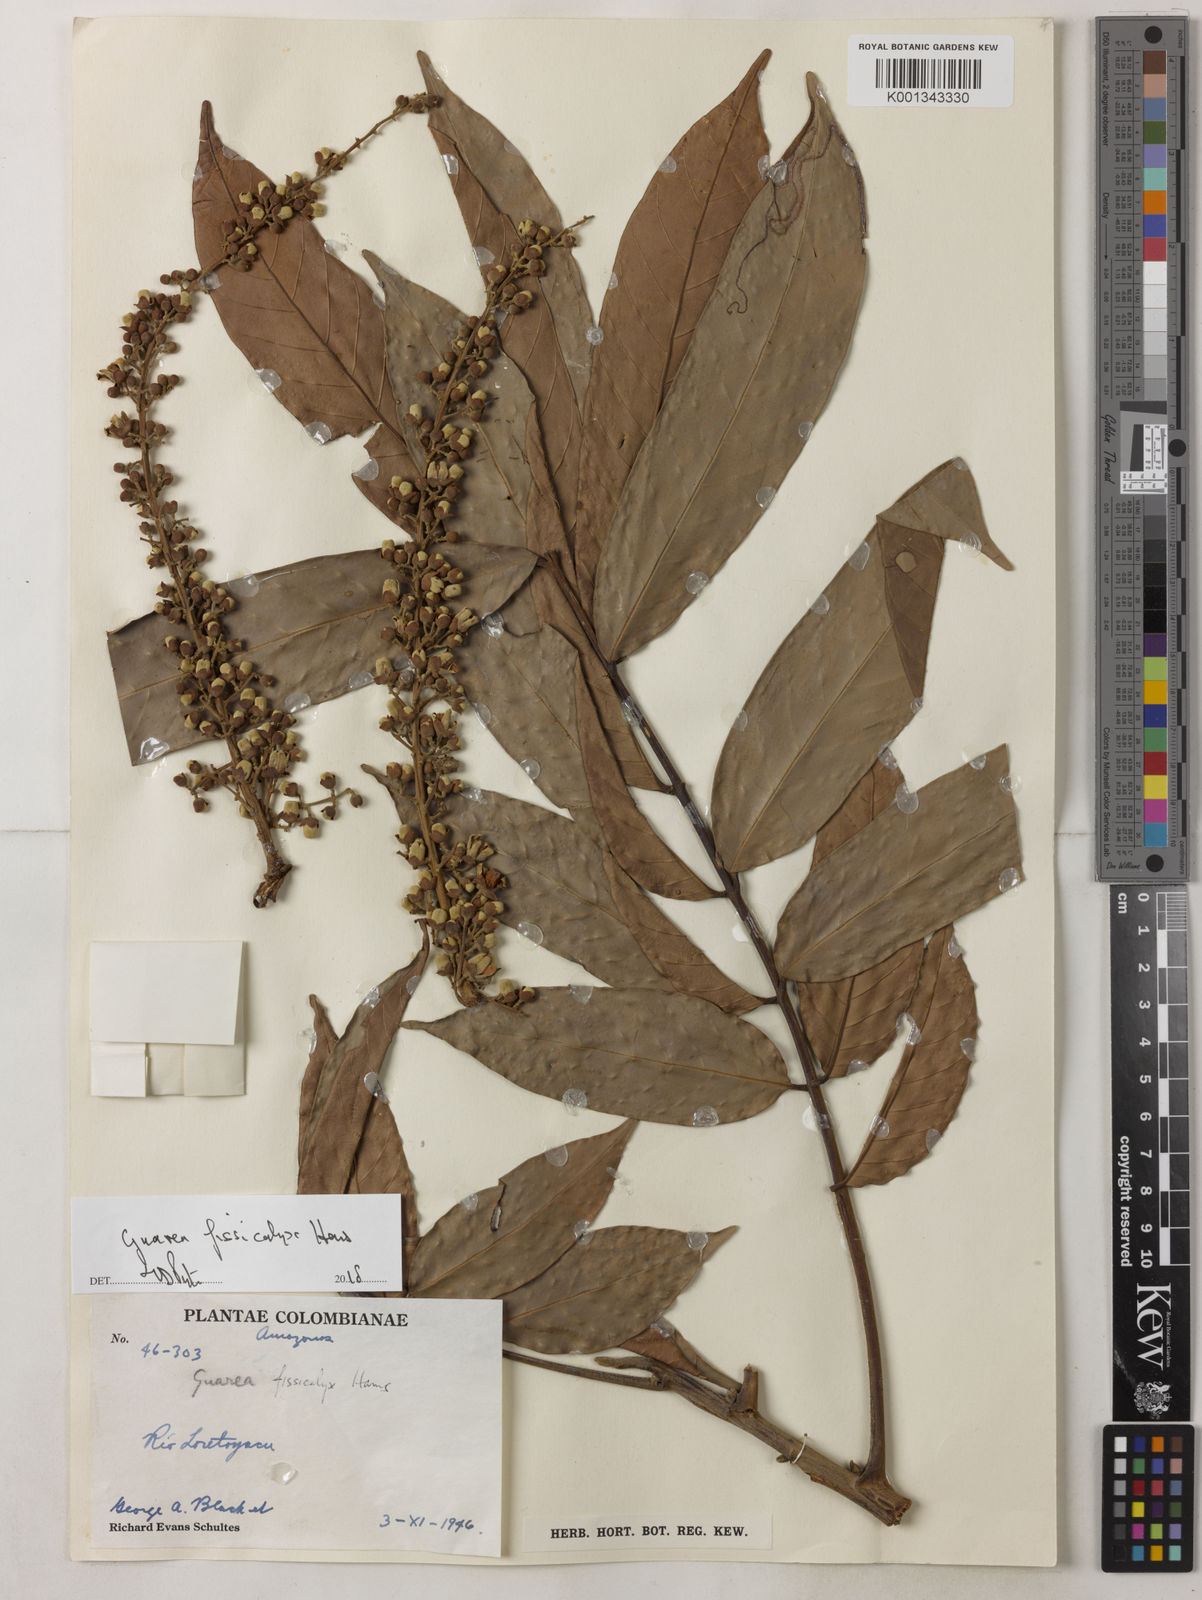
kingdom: Plantae
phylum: Tracheophyta
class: Magnoliopsida
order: Sapindales
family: Meliaceae
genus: Guarea
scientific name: Guarea gomma
